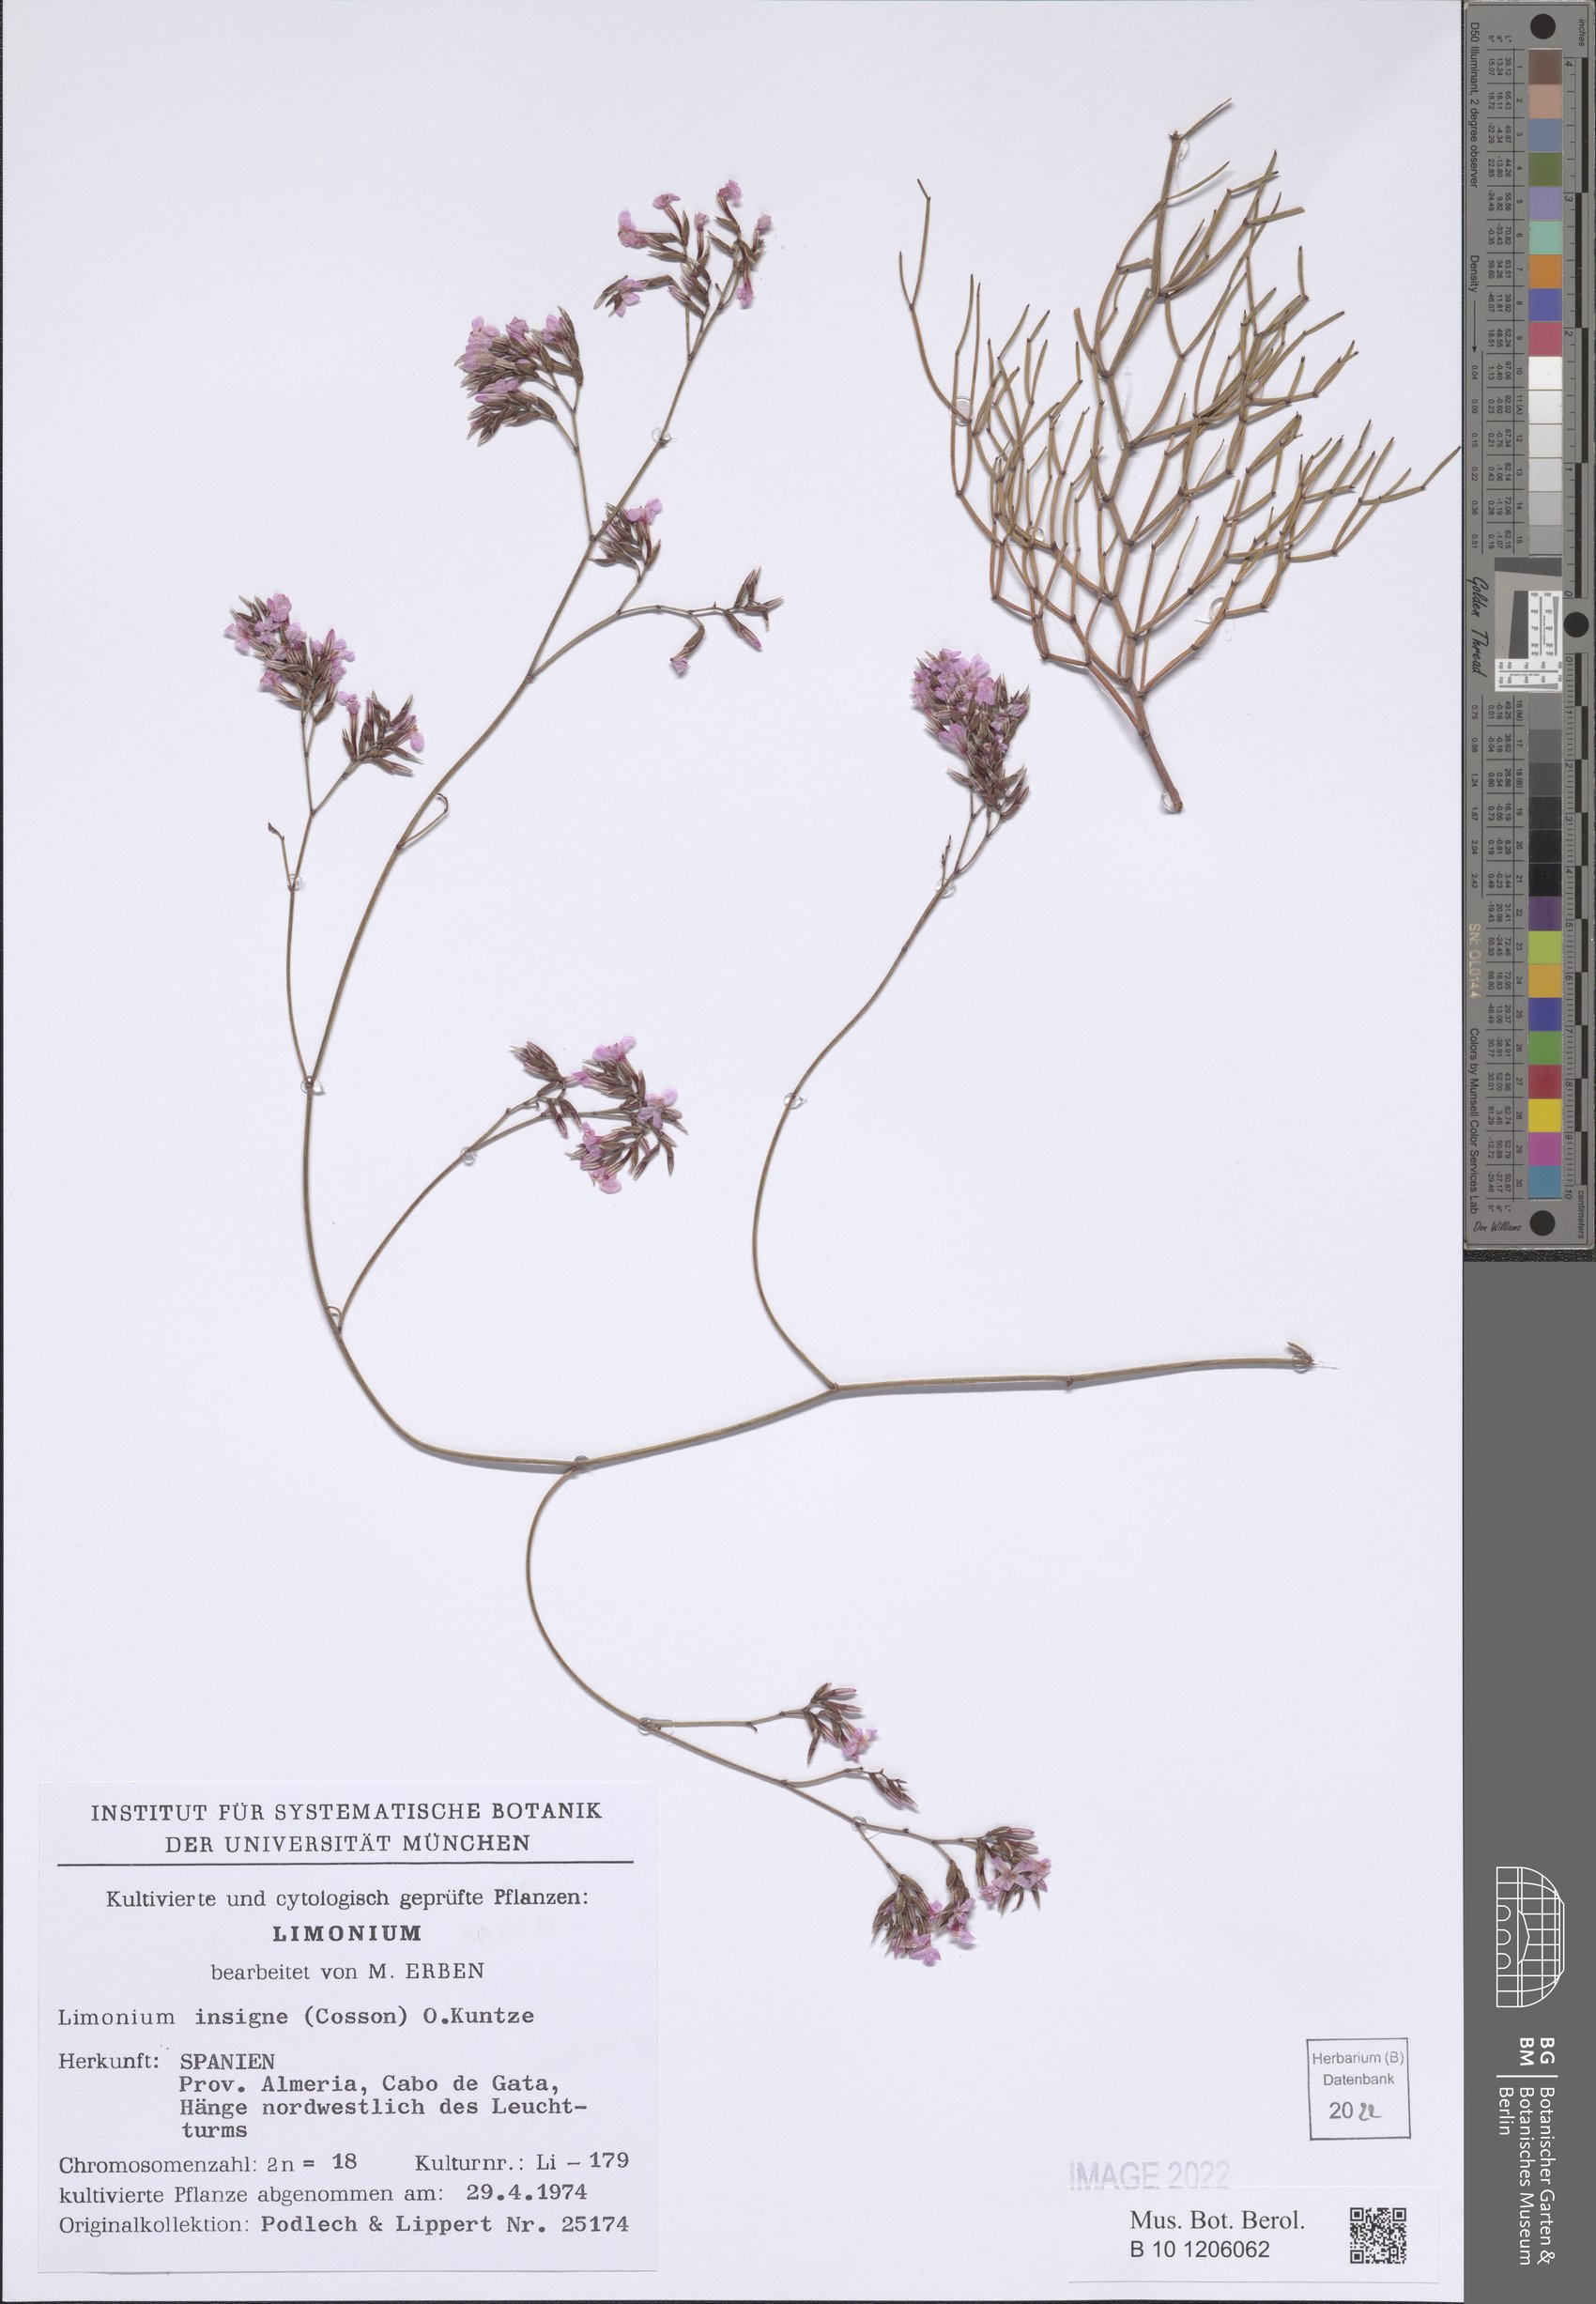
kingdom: Plantae
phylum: Tracheophyta
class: Magnoliopsida
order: Caryophyllales
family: Plumbaginaceae
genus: Limonium
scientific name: Limonium insigne
